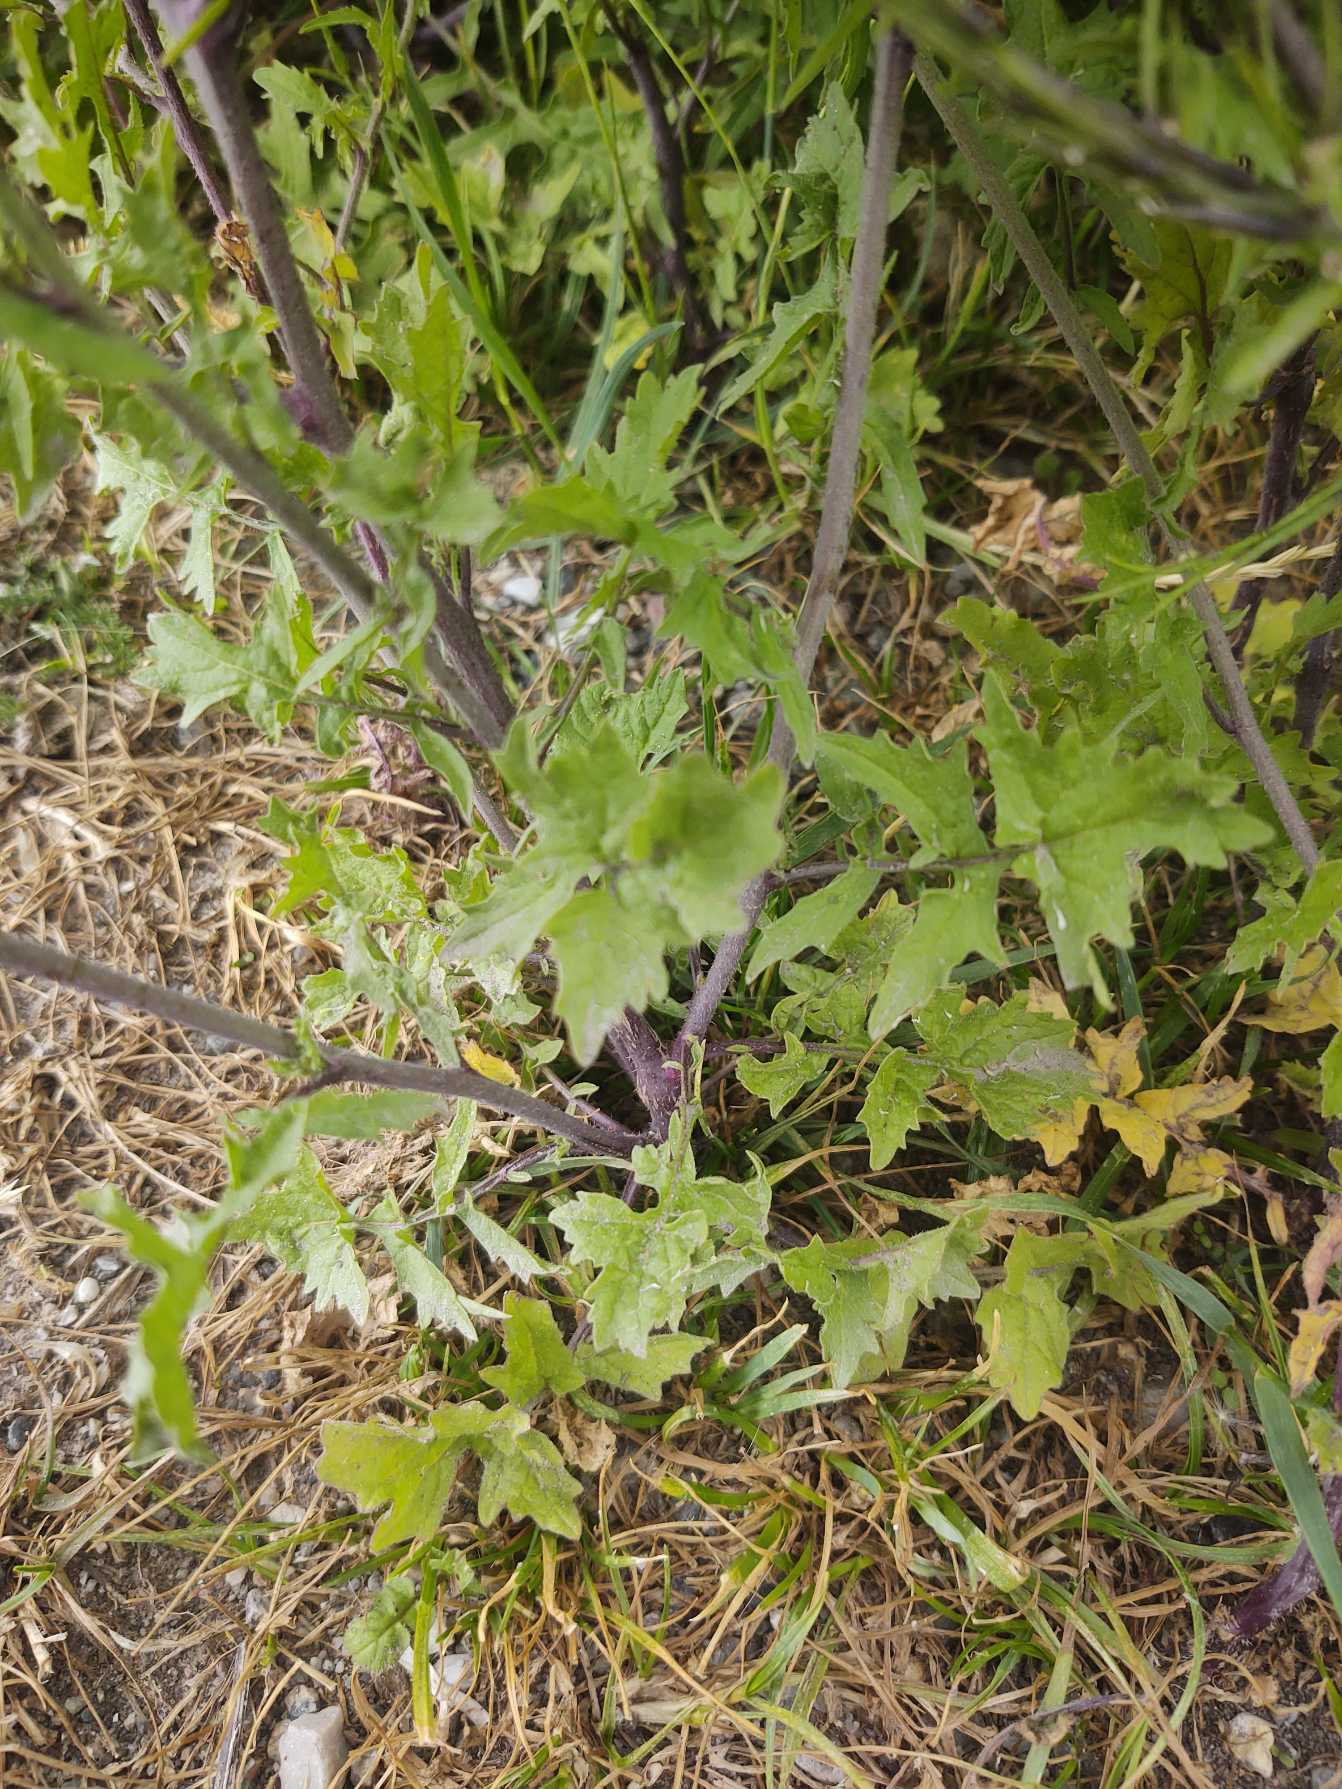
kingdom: Plantae
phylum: Tracheophyta
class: Magnoliopsida
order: Brassicales
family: Brassicaceae
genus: Sisymbrium
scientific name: Sisymbrium officinale
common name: Rank vejsennep
